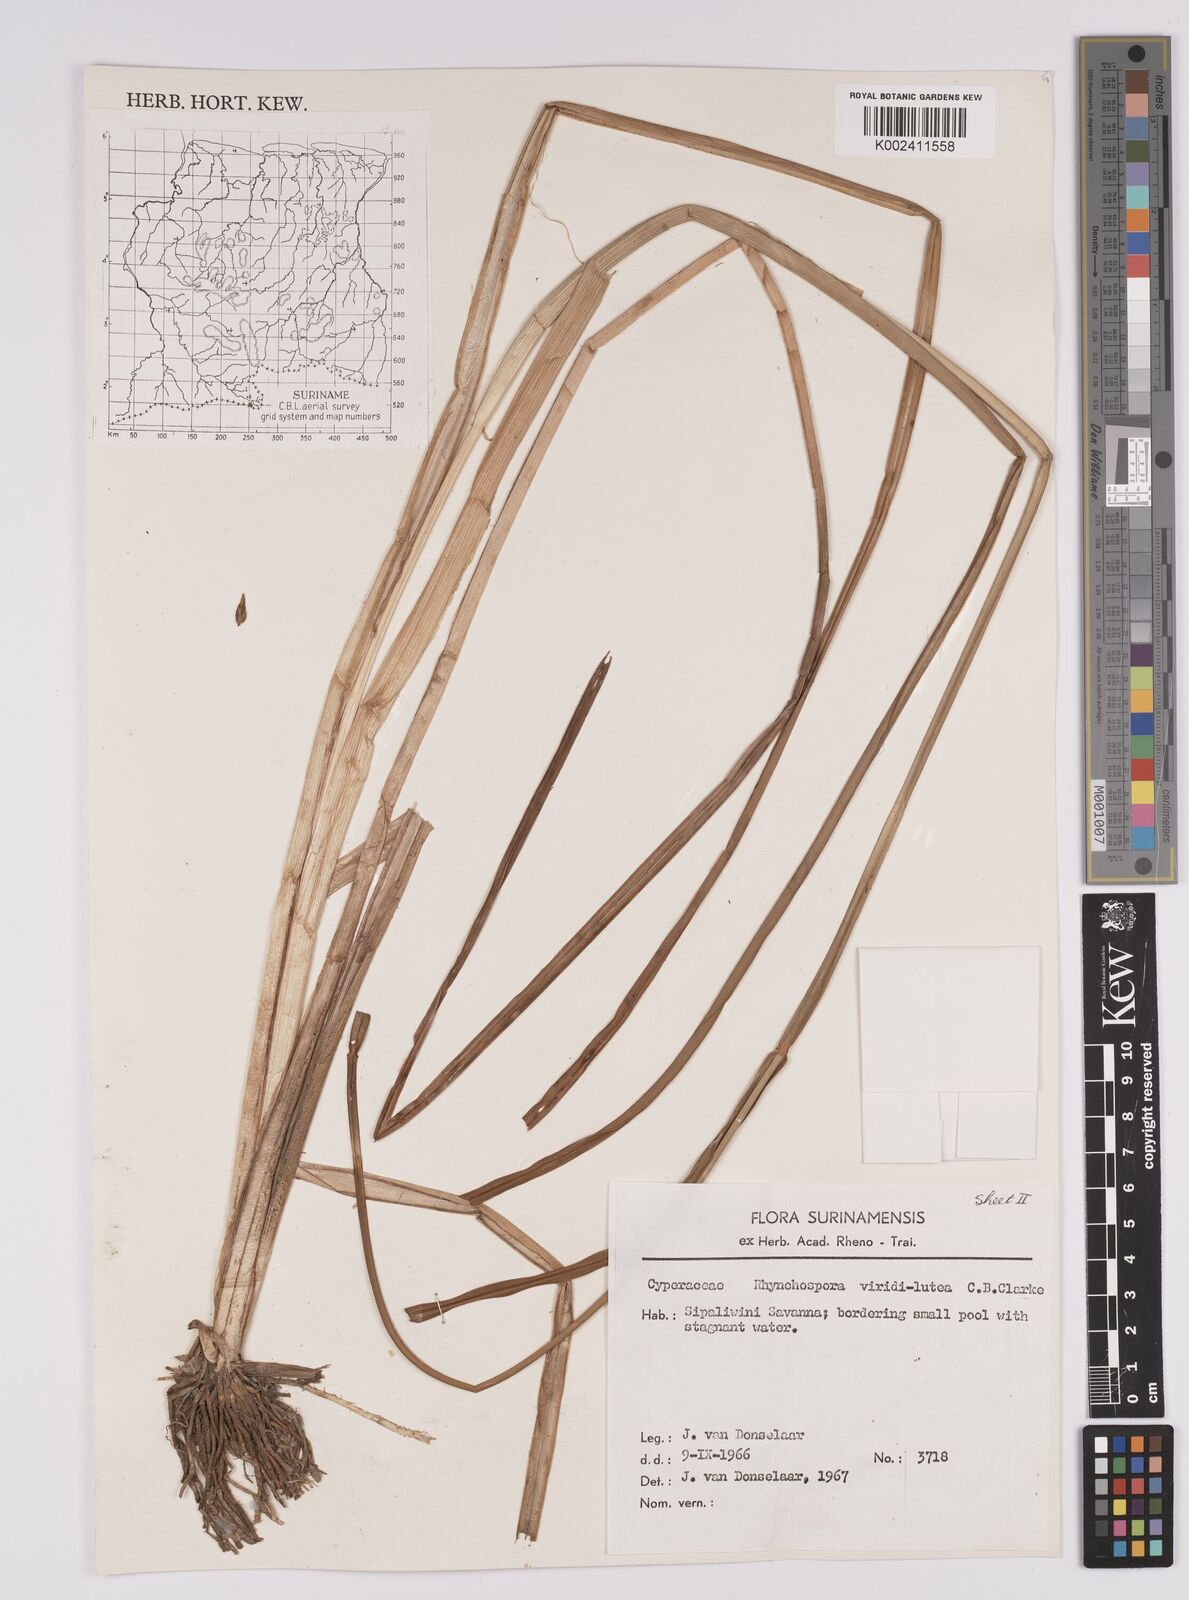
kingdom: Plantae
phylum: Tracheophyta
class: Liliopsida
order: Poales
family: Cyperaceae
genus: Rhynchospora
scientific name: Rhynchospora hassleri
